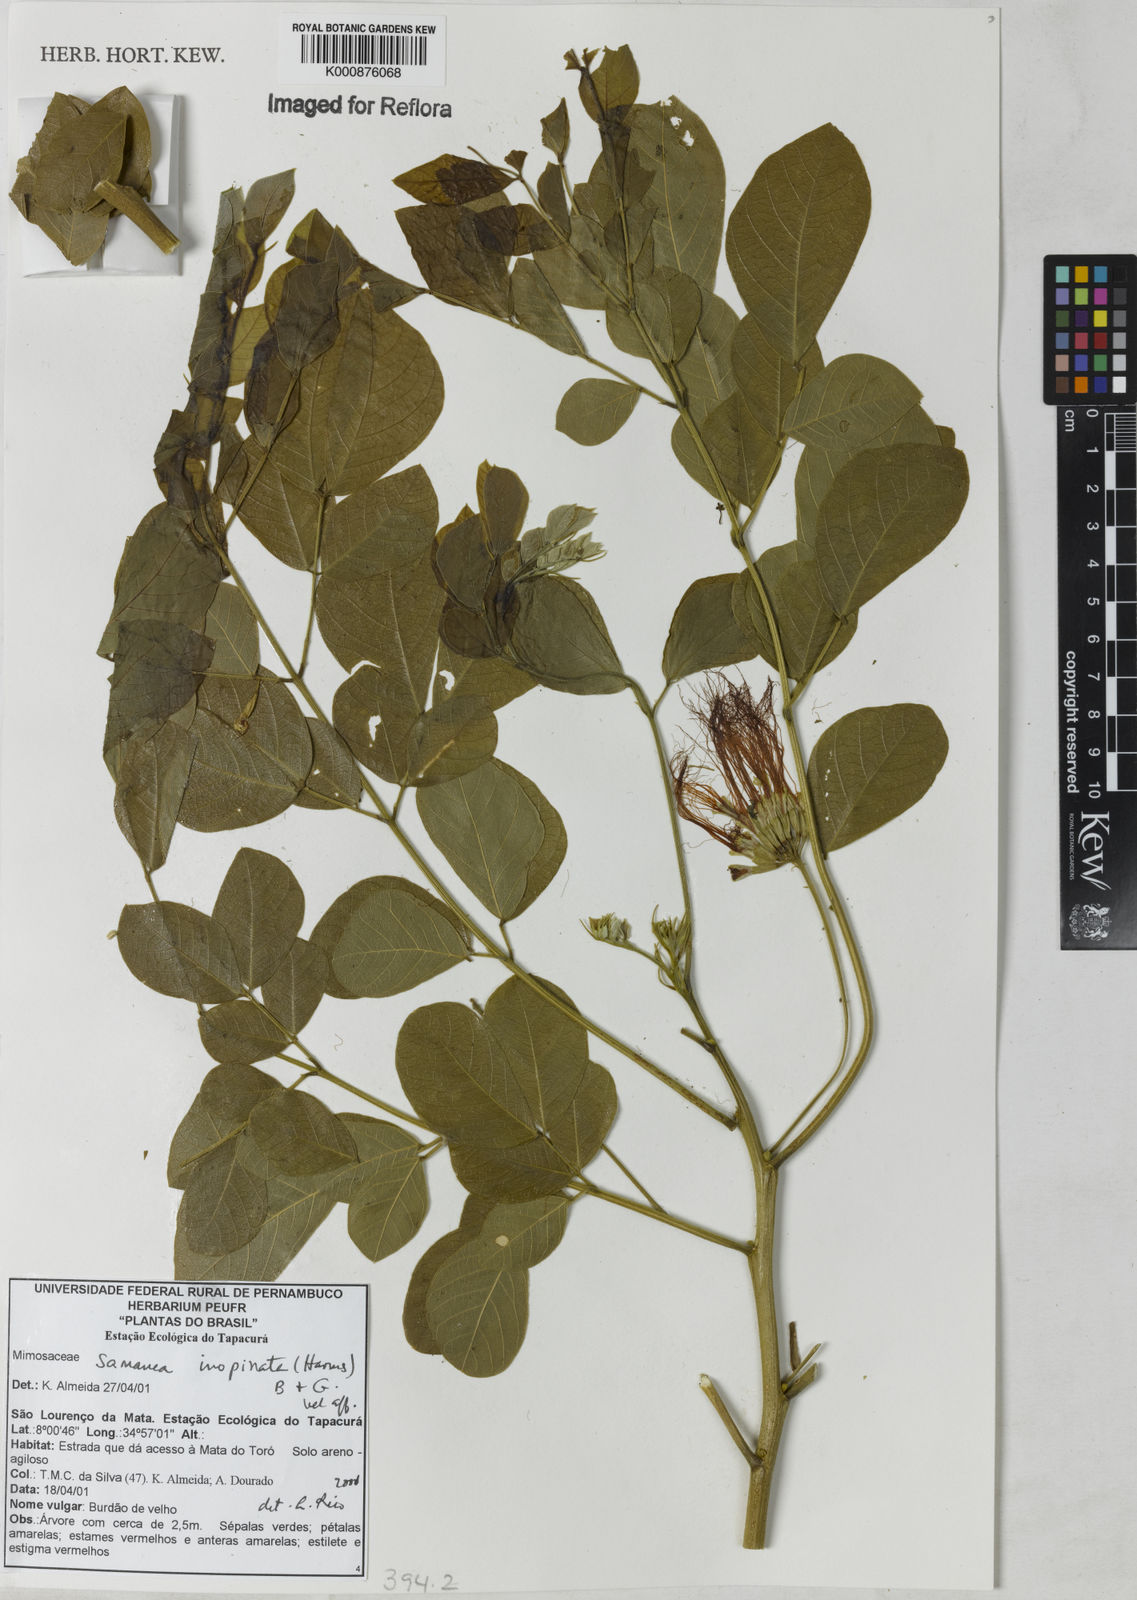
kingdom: Plantae
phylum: Tracheophyta
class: Magnoliopsida
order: Fabales
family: Fabaceae
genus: Samanea
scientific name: Samanea inopinata
